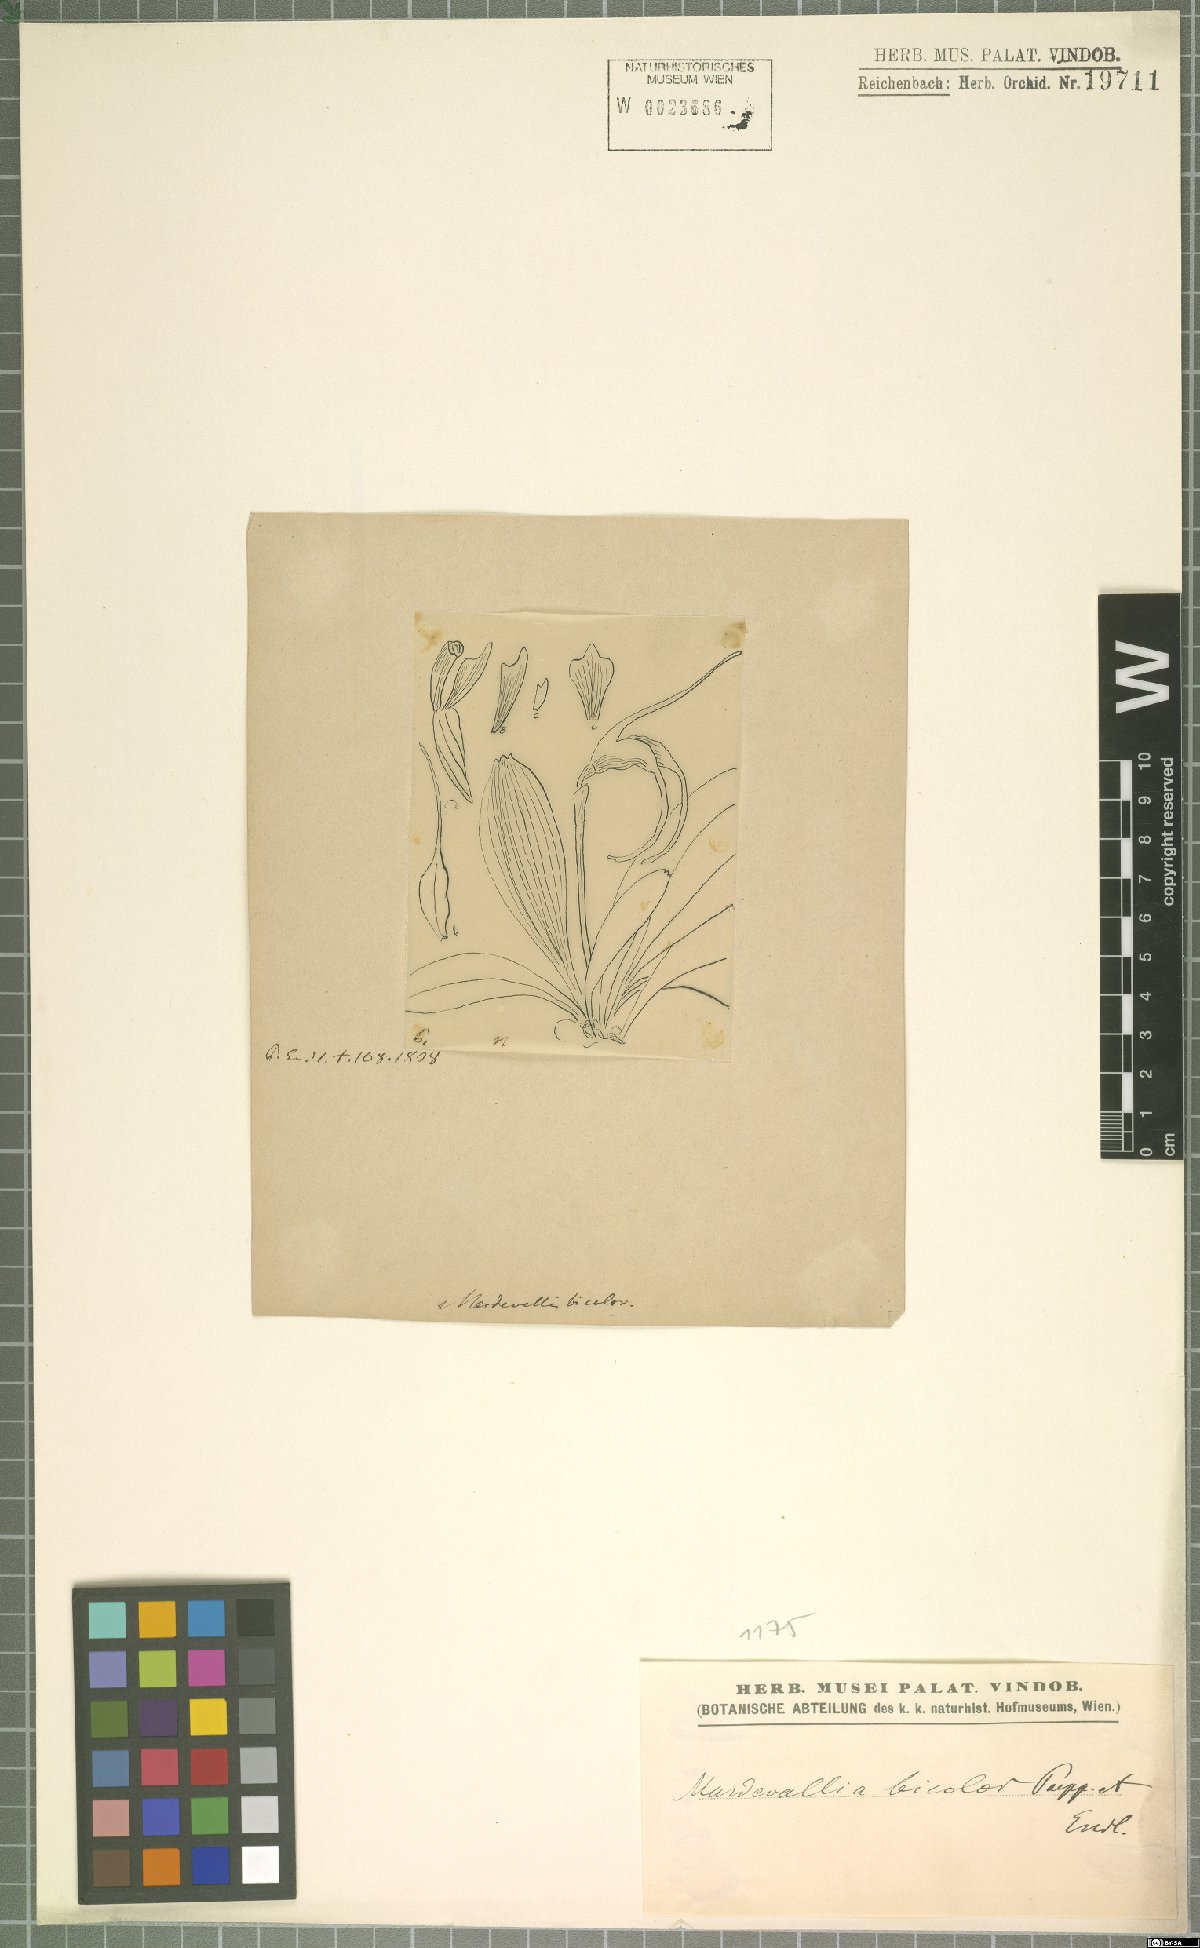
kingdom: Plantae
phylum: Tracheophyta
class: Liliopsida
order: Asparagales
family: Orchidaceae
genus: Masdevallia
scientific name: Masdevallia bicolor
